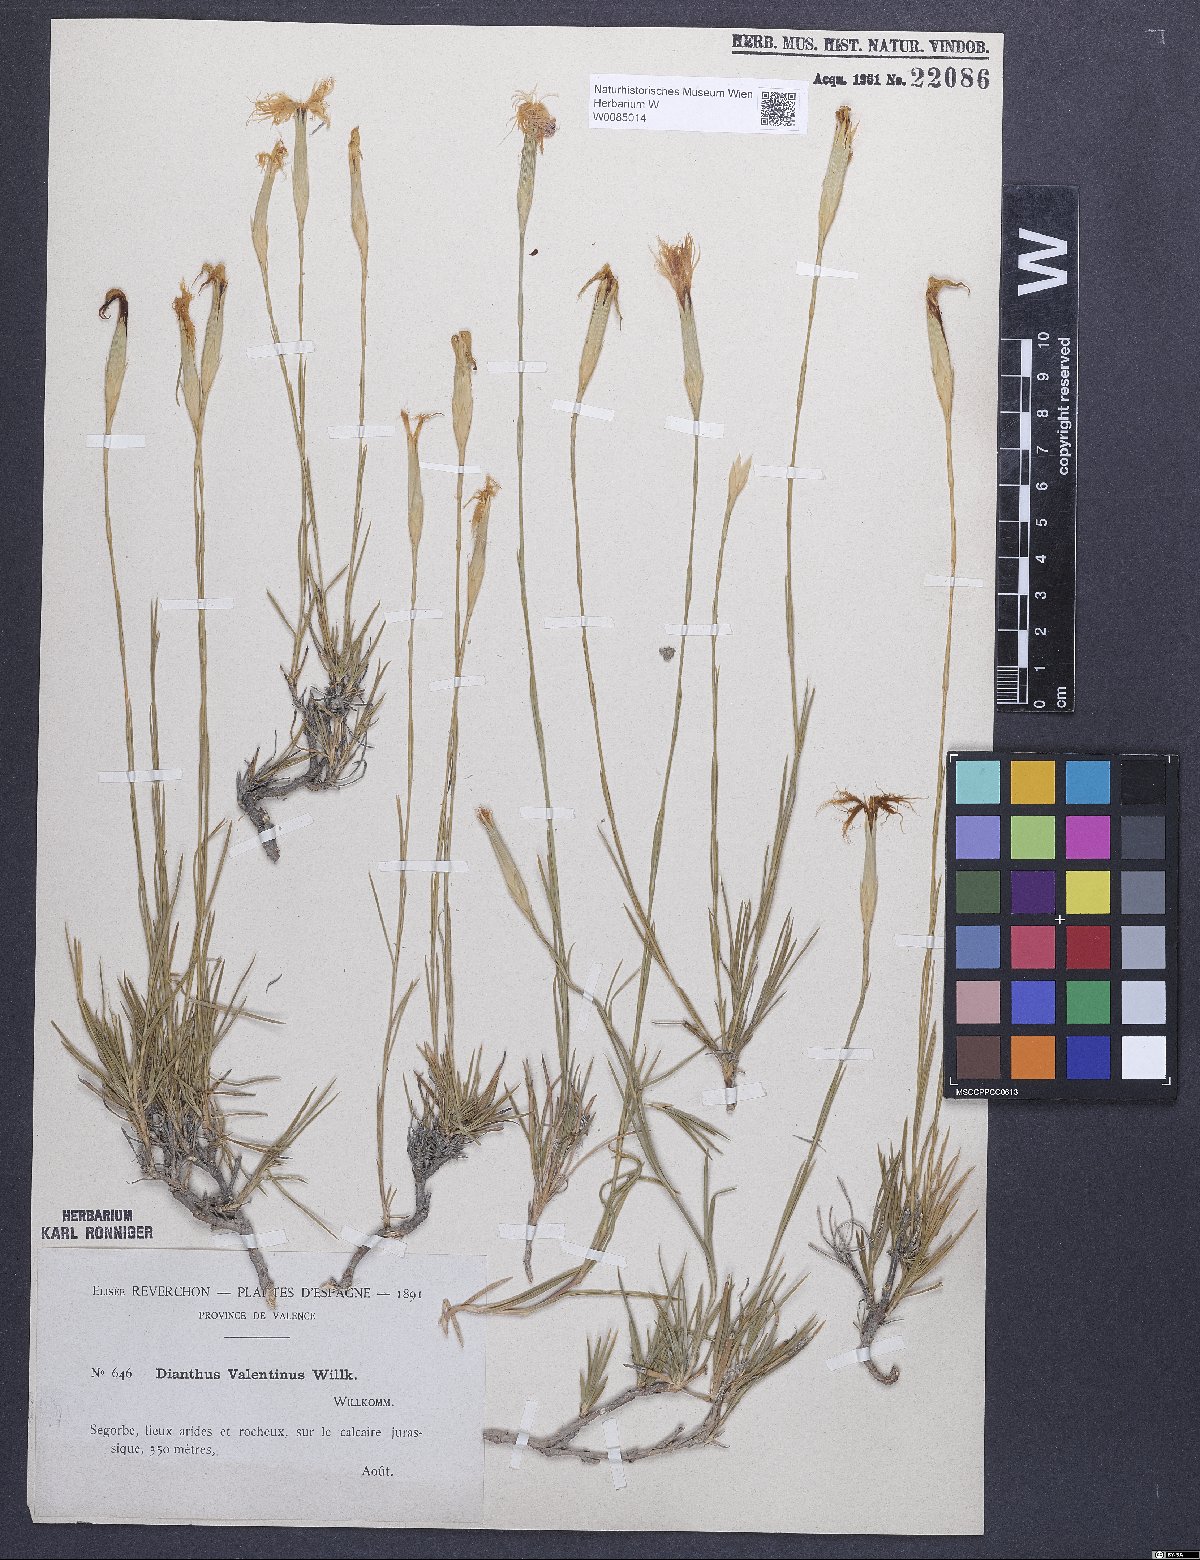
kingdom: Plantae
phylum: Tracheophyta
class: Magnoliopsida
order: Caryophyllales
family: Caryophyllaceae
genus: Dianthus
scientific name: Dianthus broteri
